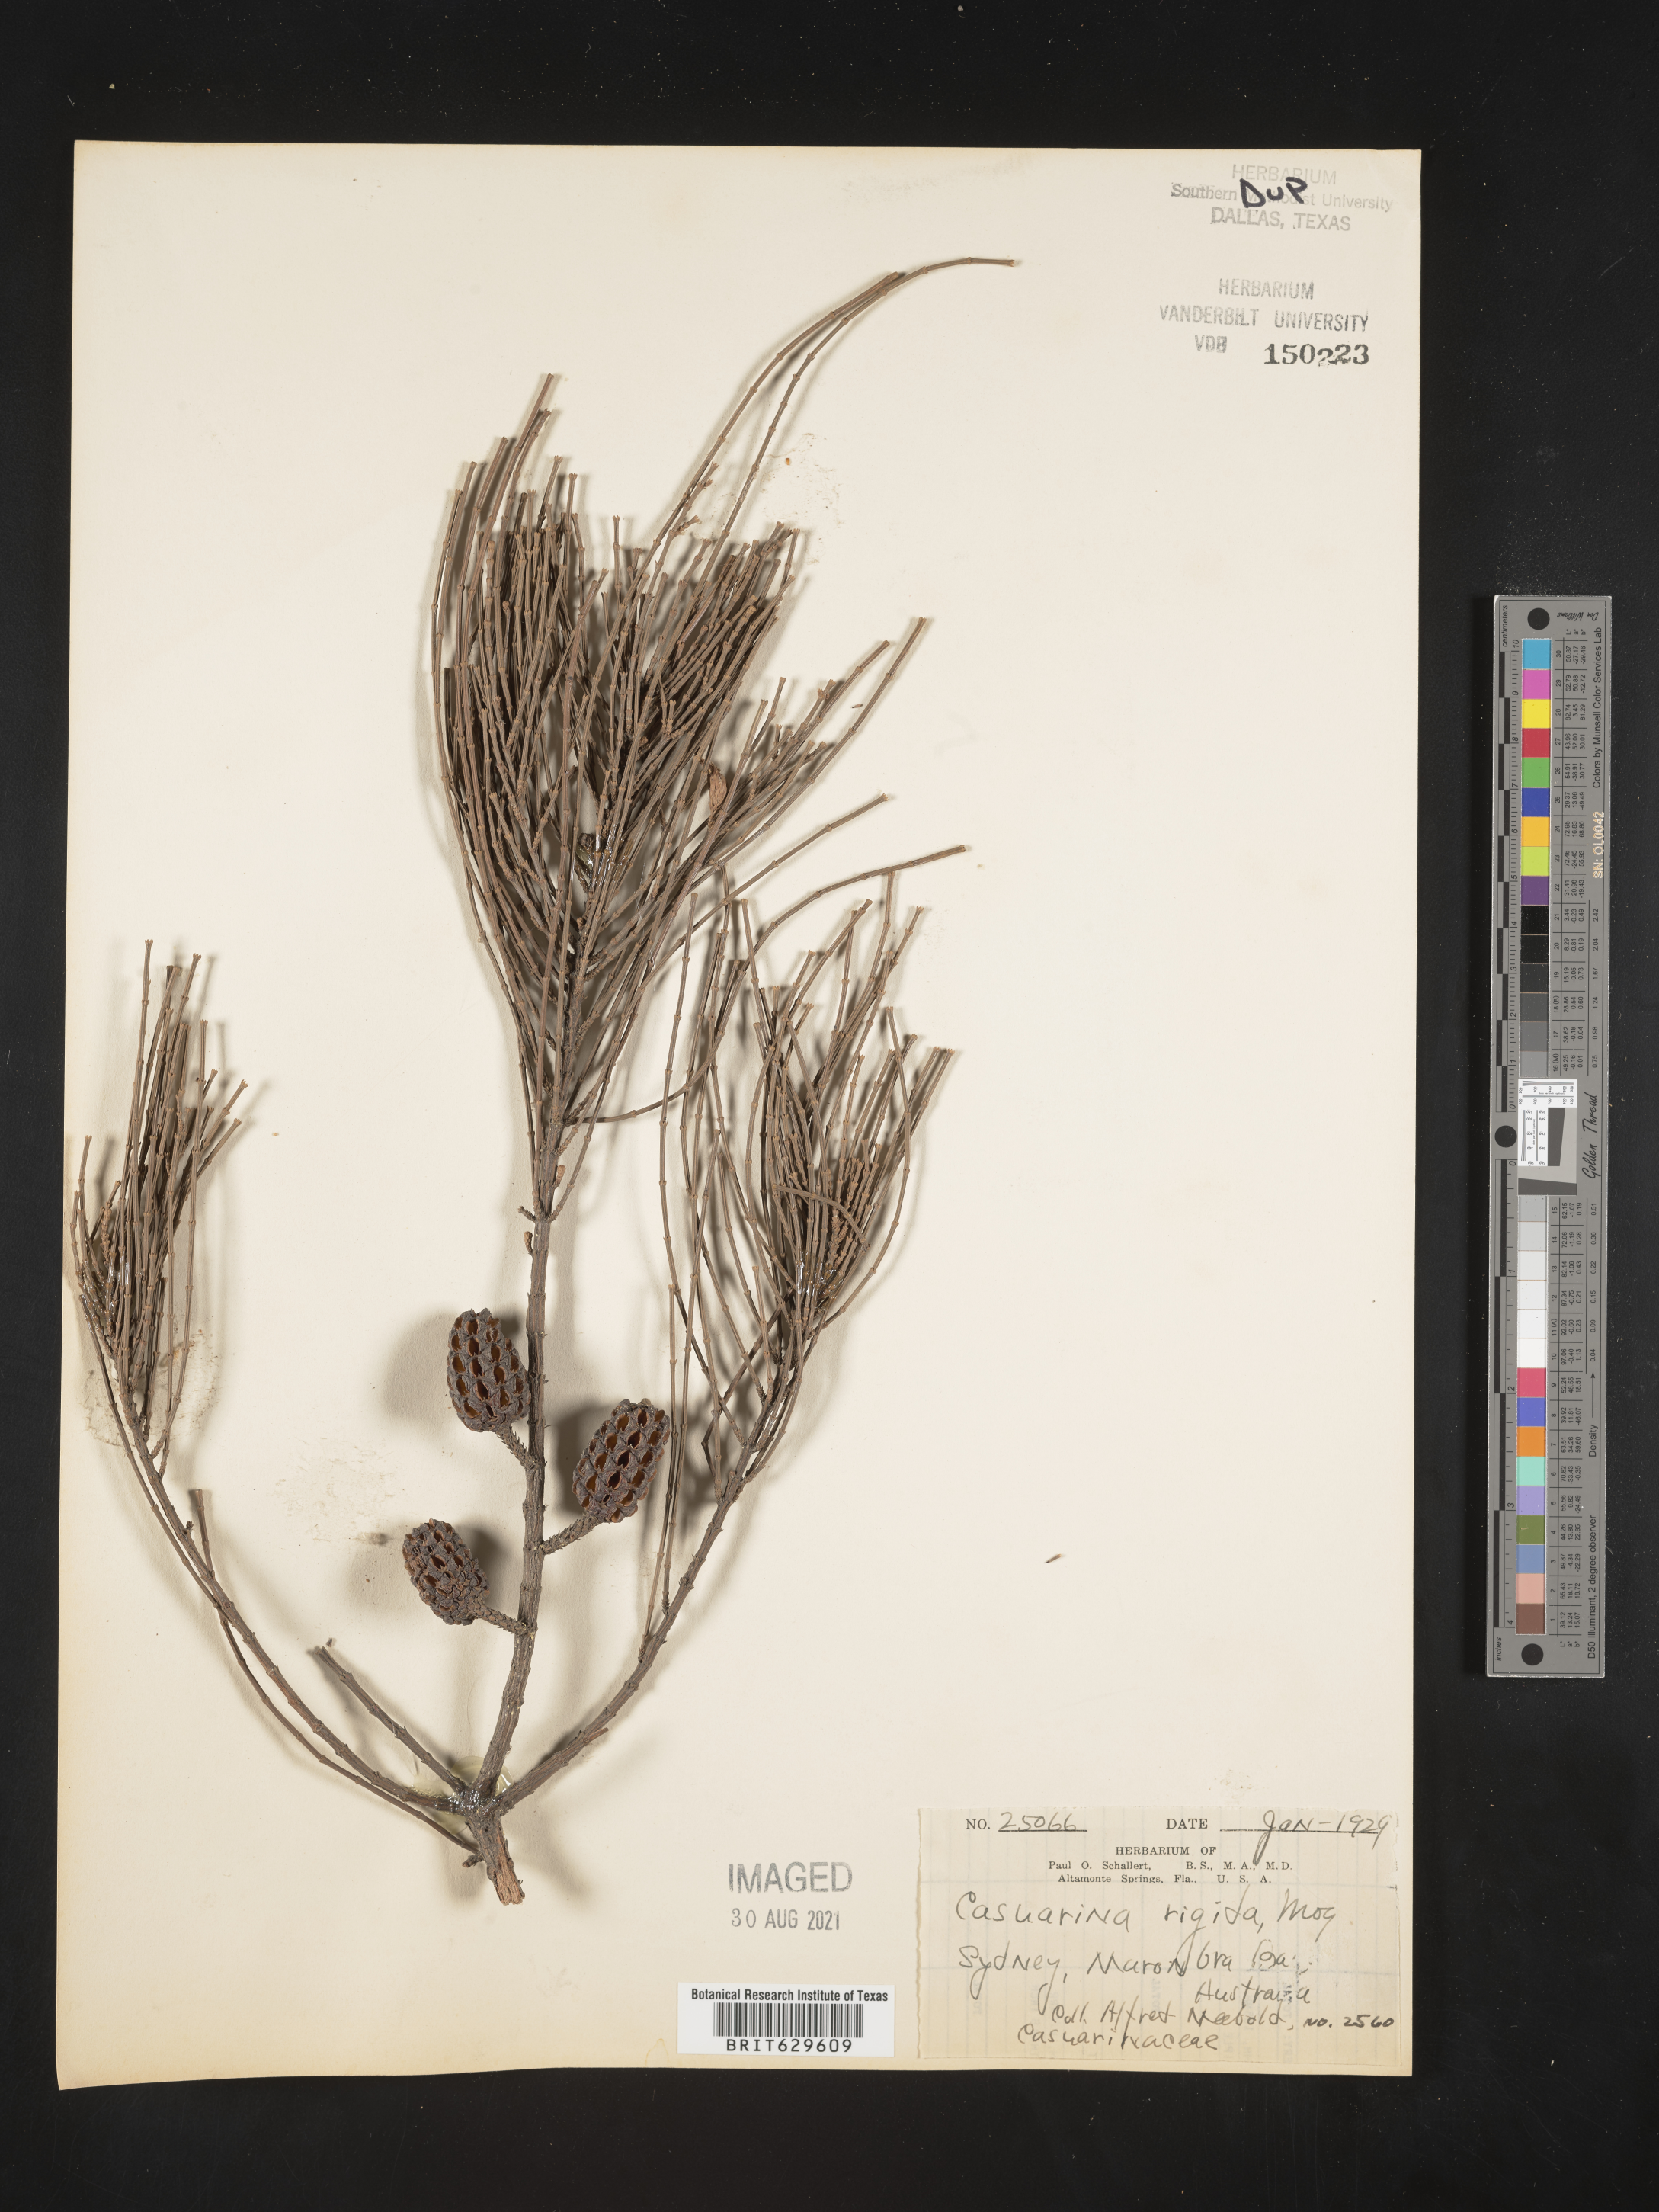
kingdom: Plantae
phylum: Tracheophyta
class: Magnoliopsida
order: Fagales
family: Casuarinaceae
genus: Casuarina
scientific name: Casuarina
